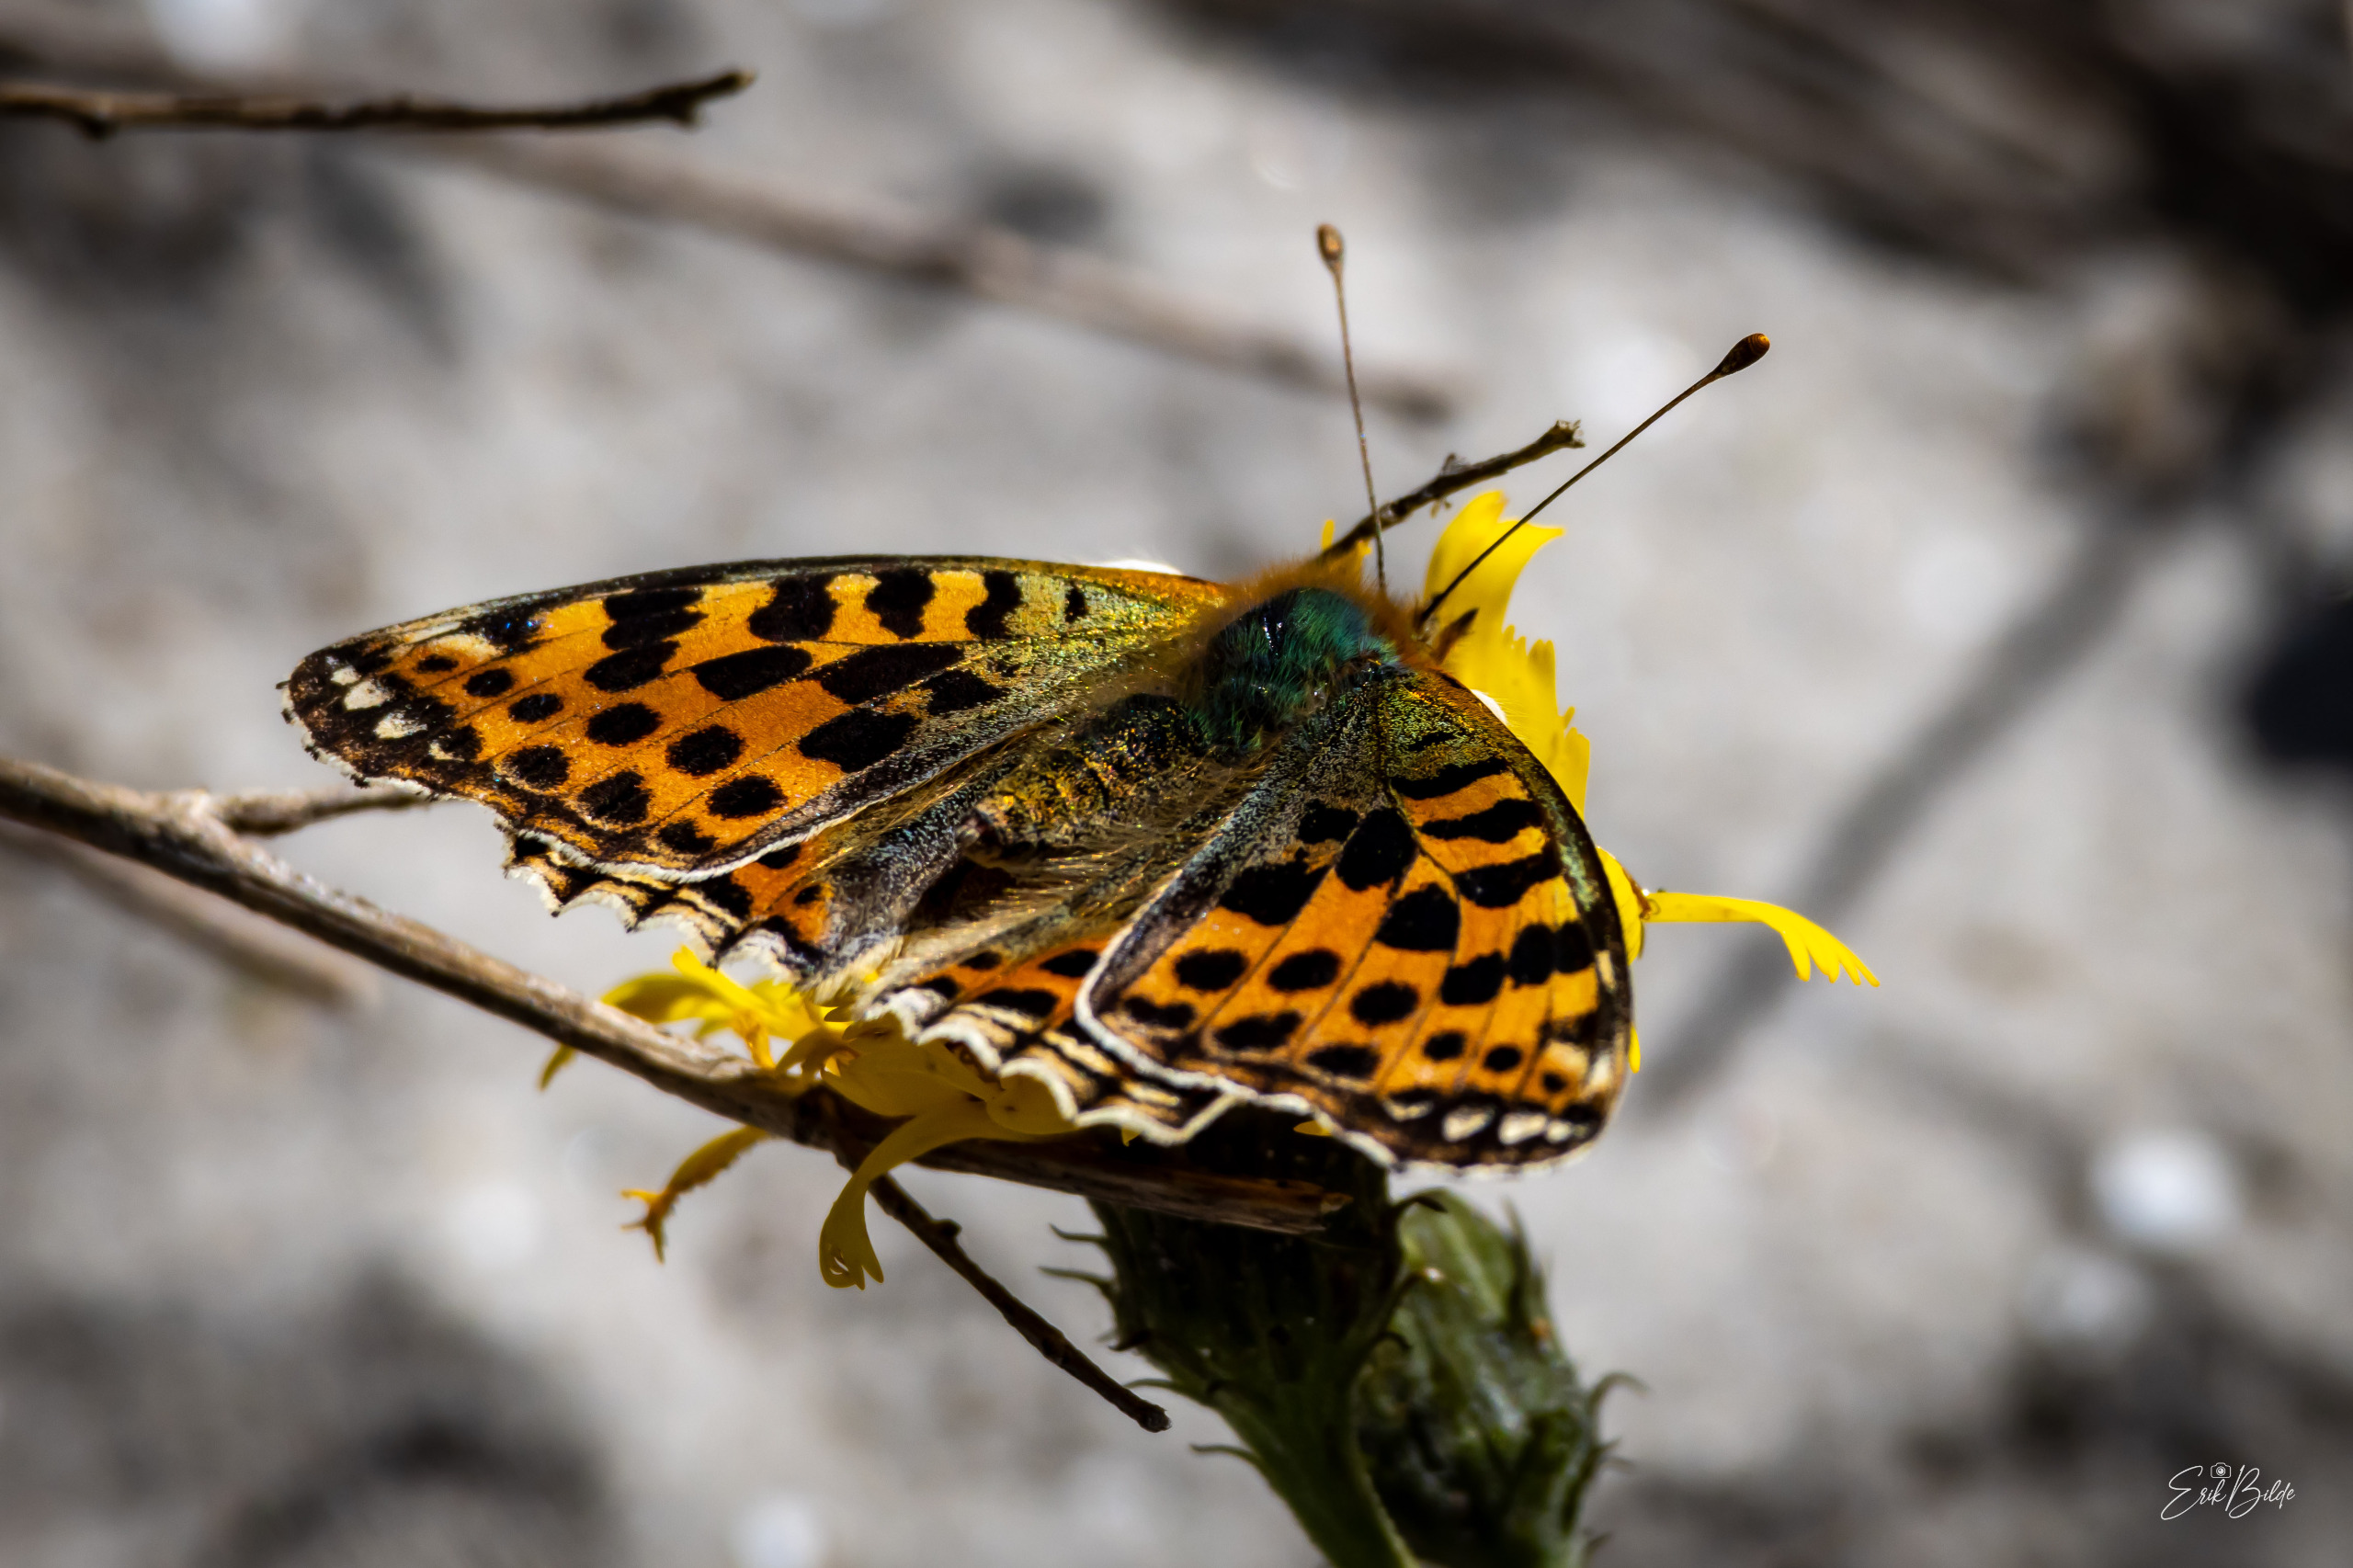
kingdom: Animalia
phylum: Arthropoda
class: Insecta
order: Lepidoptera
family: Nymphalidae
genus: Issoria
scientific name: Issoria lathonia
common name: Storplettet perlemorsommerfugl
